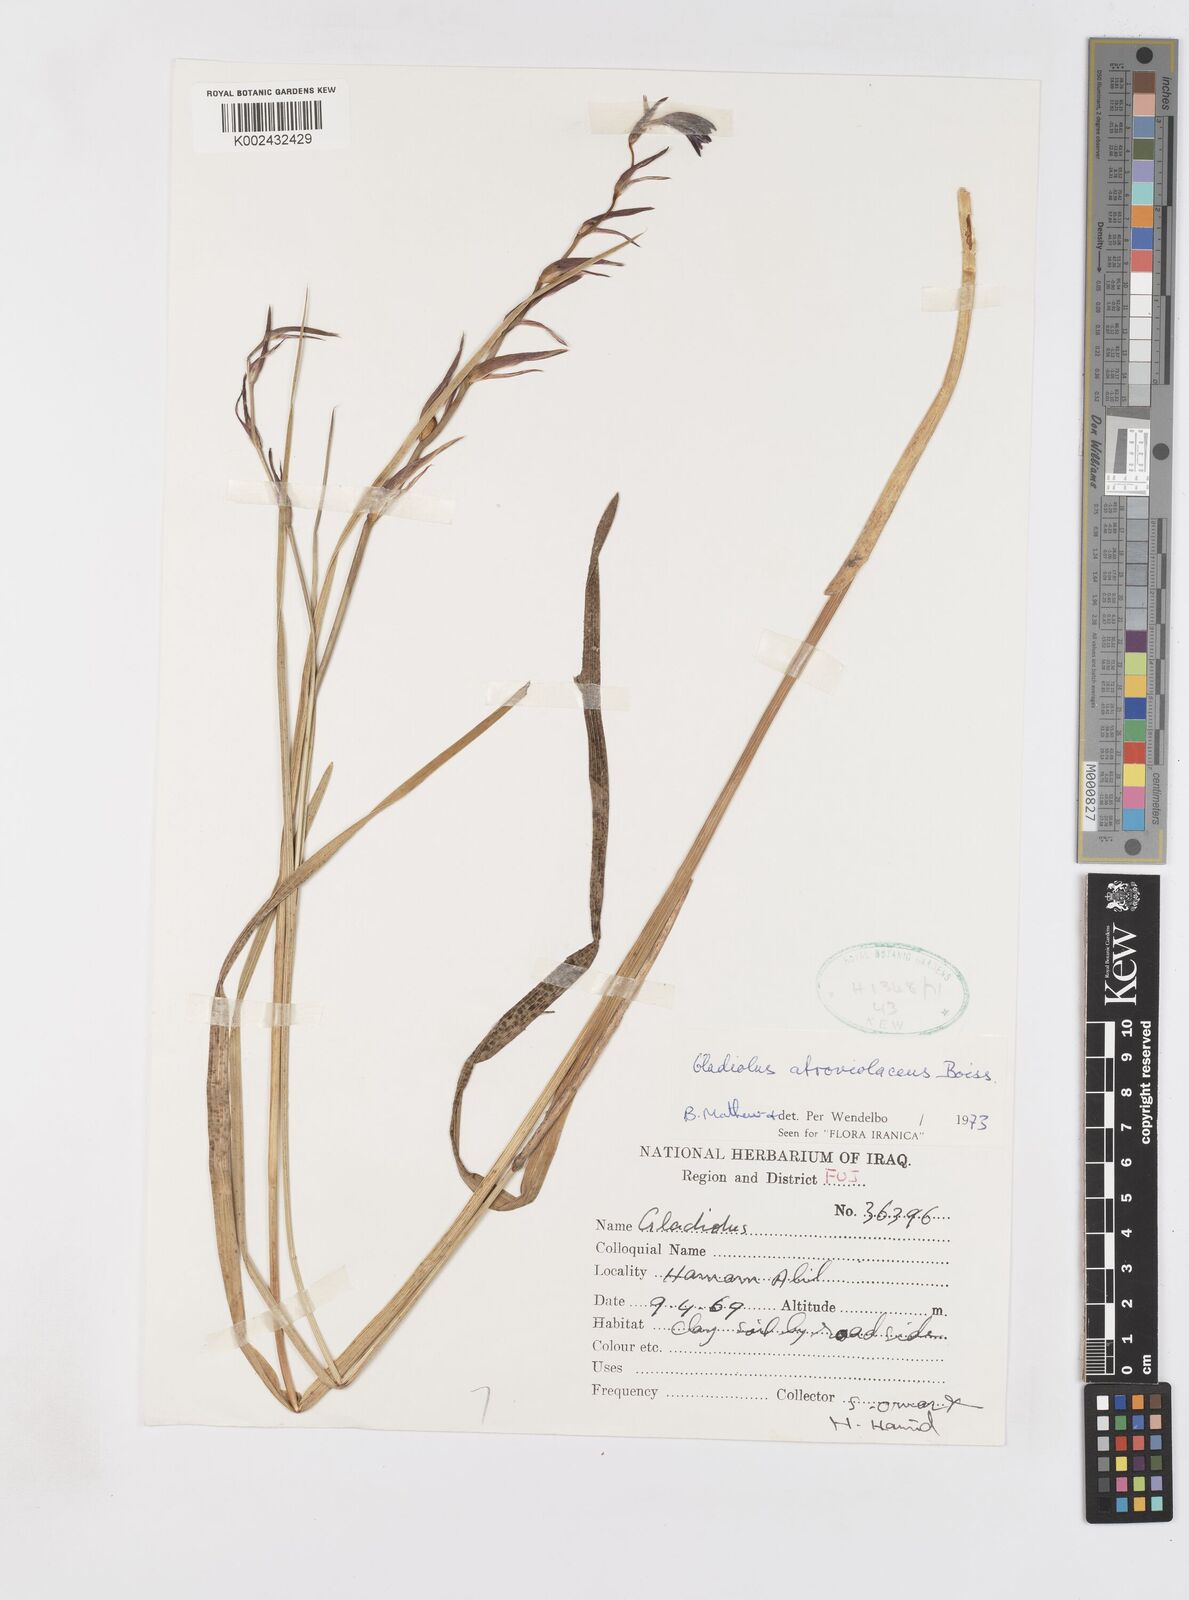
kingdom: Plantae
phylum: Tracheophyta
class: Liliopsida
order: Asparagales
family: Iridaceae
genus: Gladiolus
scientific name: Gladiolus atroviolaceus
